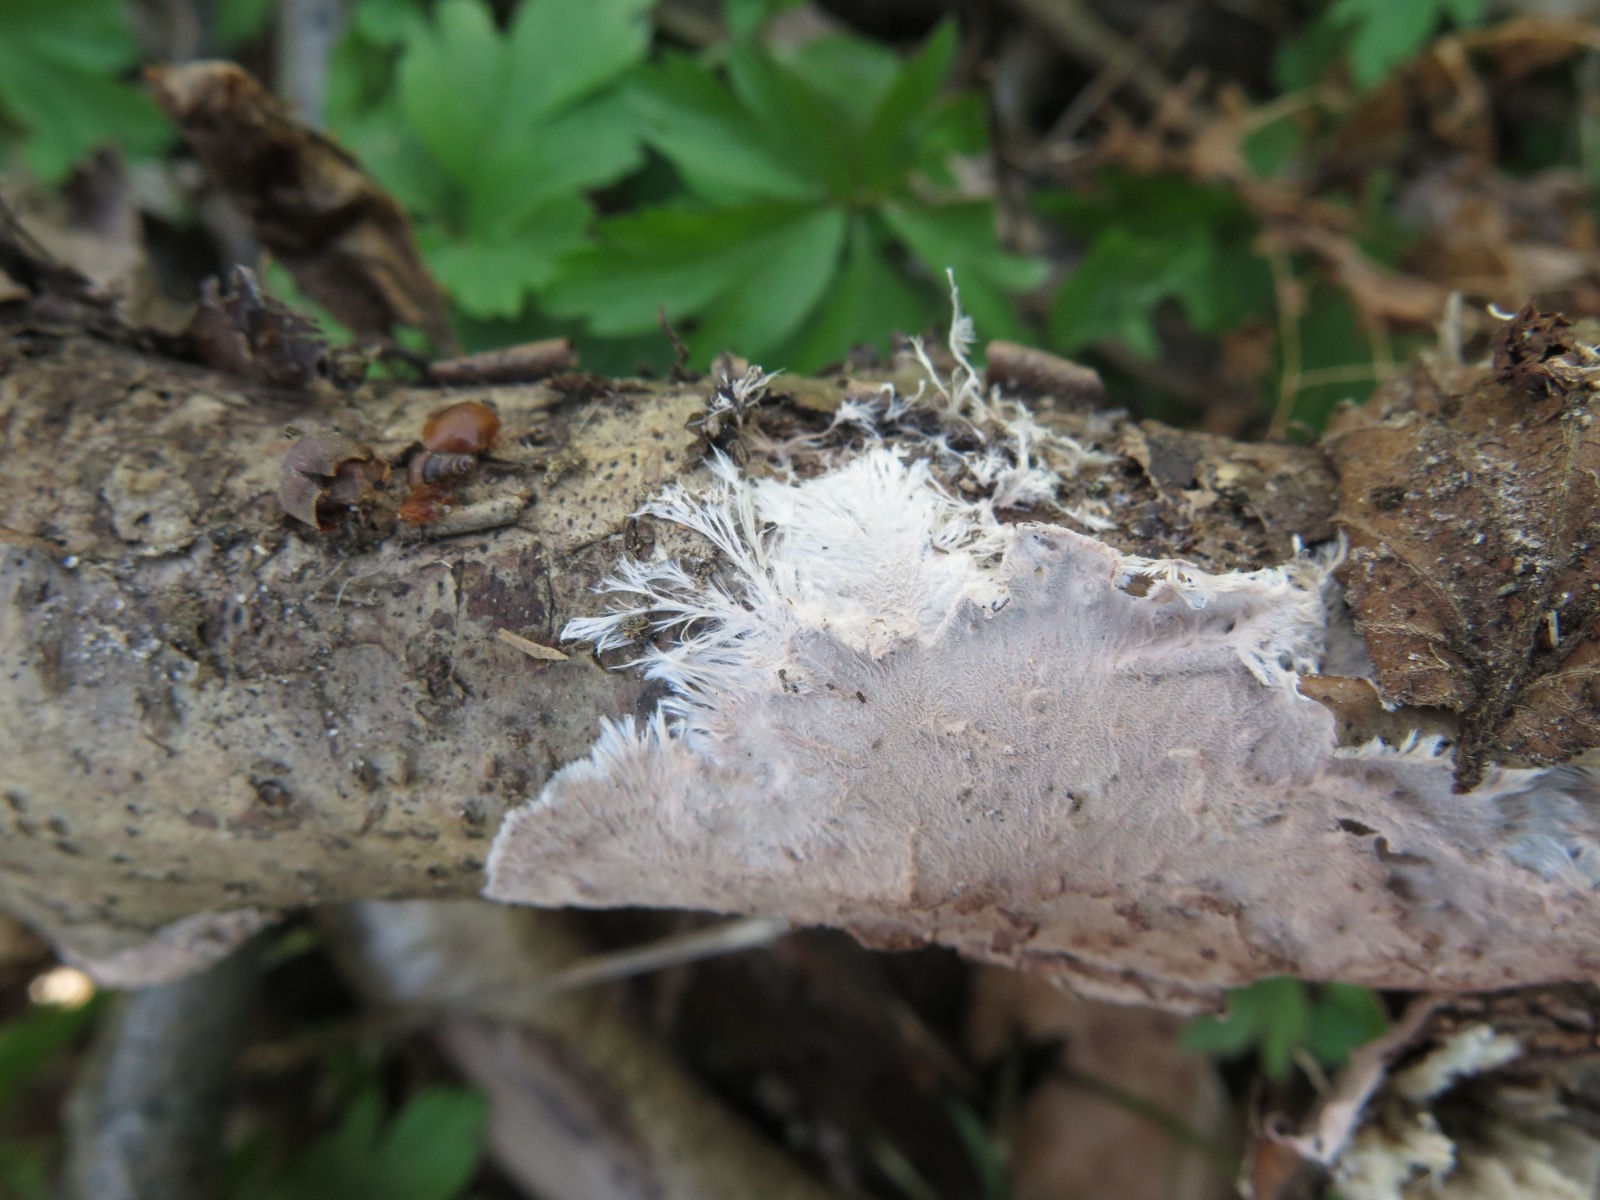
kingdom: Fungi
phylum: Basidiomycota
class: Agaricomycetes
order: Polyporales
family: Steccherinaceae
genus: Steccherinum
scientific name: Steccherinum fimbriatum
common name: trådet skønpig
